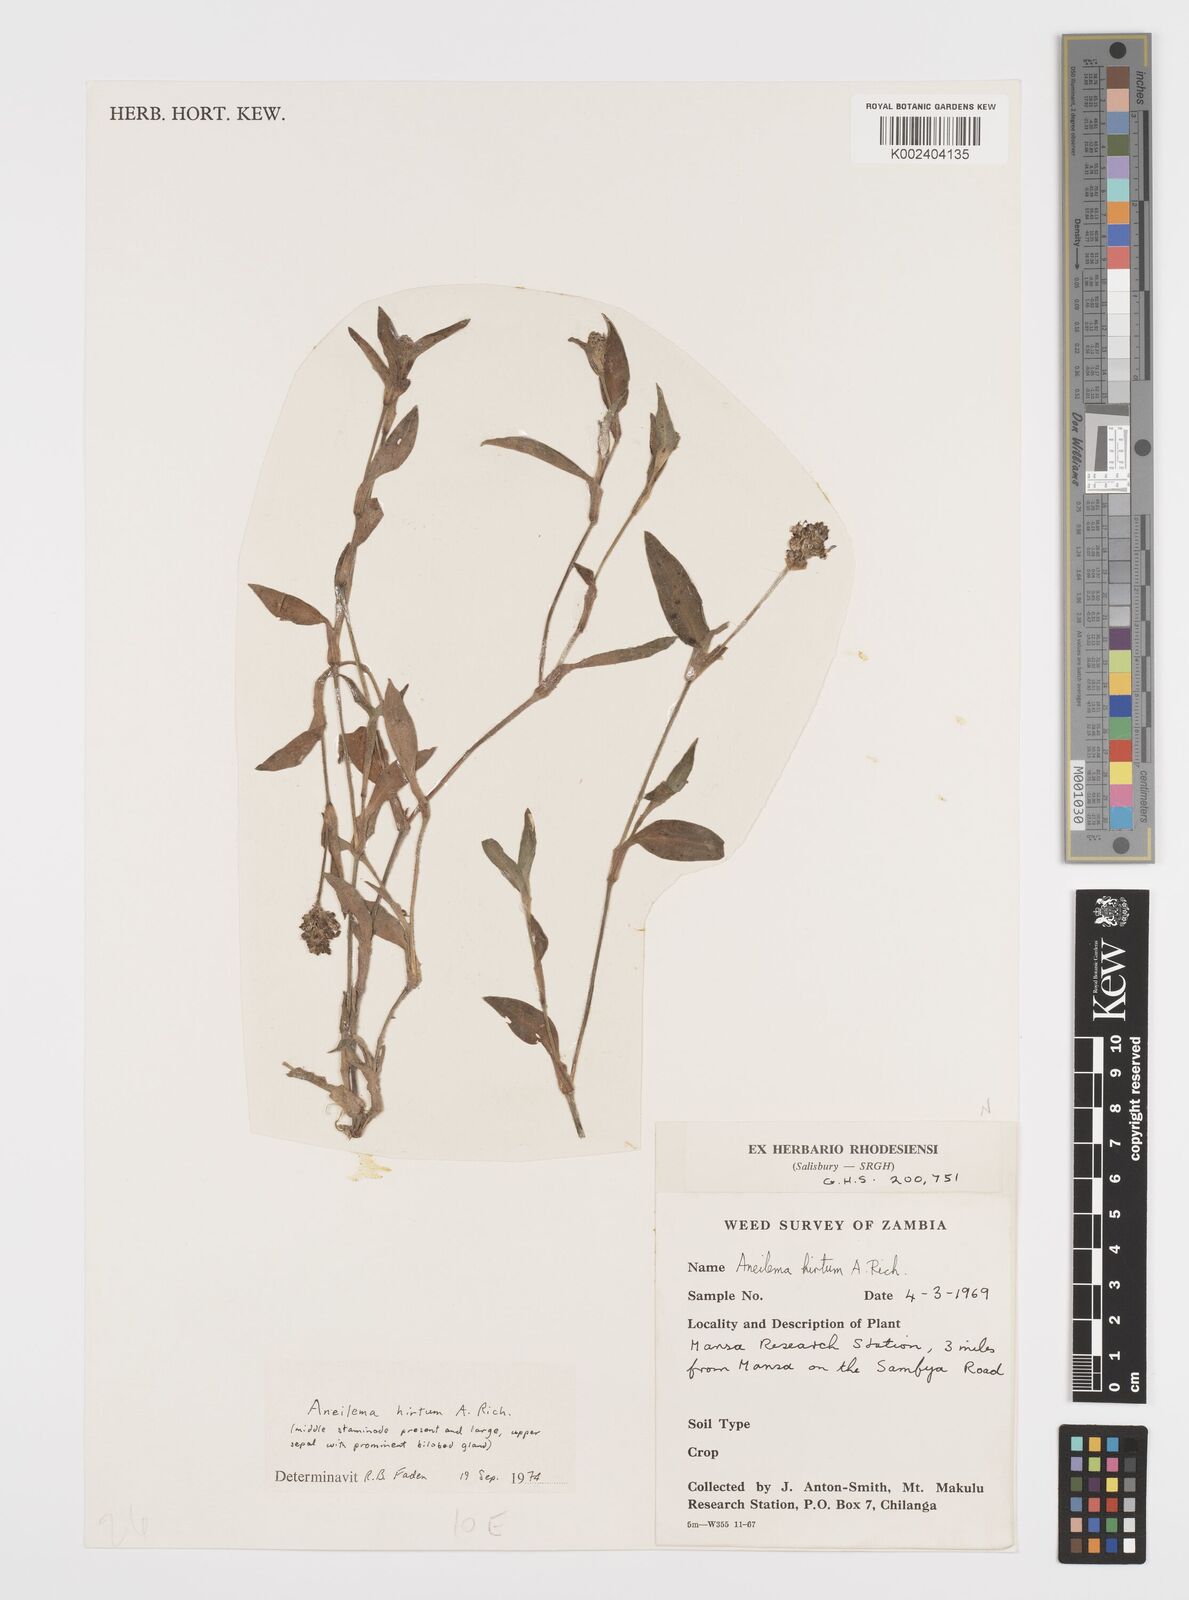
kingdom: Plantae
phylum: Tracheophyta
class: Liliopsida
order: Commelinales
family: Commelinaceae
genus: Aneilema
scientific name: Aneilema hirtum
